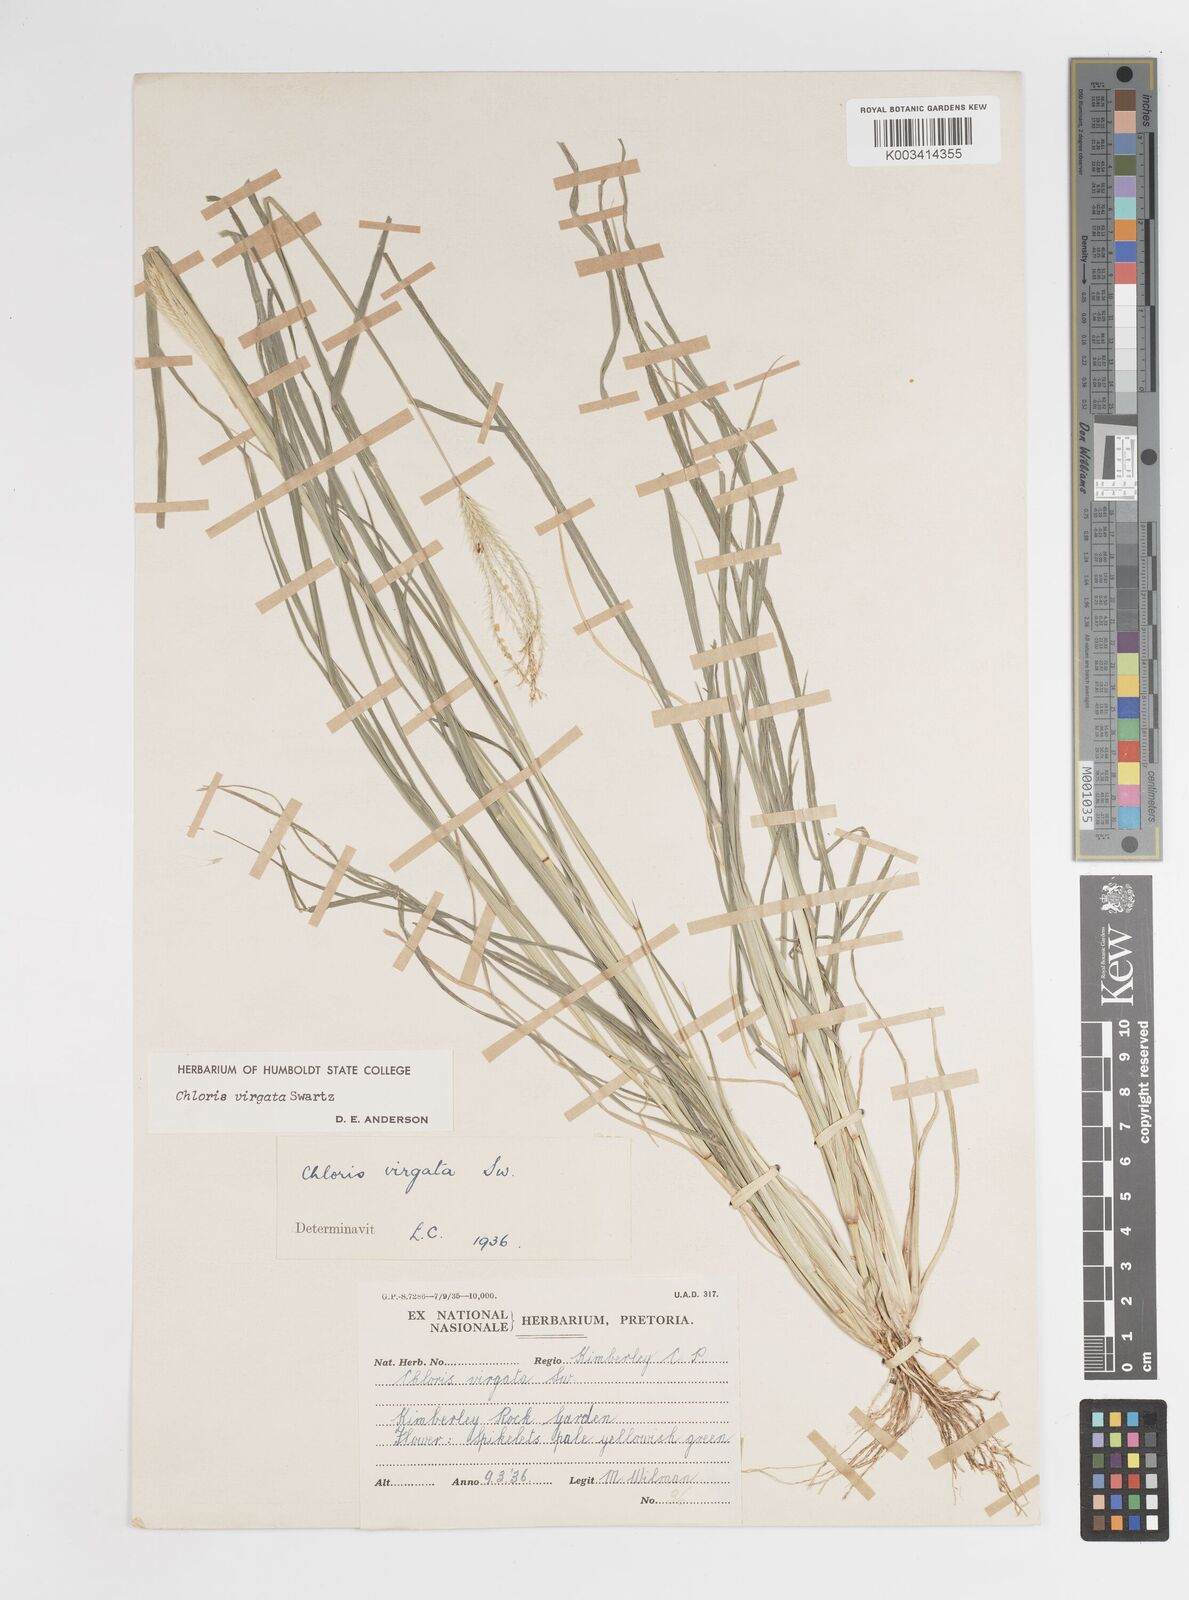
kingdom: Plantae
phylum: Tracheophyta
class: Liliopsida
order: Poales
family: Poaceae
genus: Chloris
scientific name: Chloris virgata
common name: Feathery rhodes-grass
